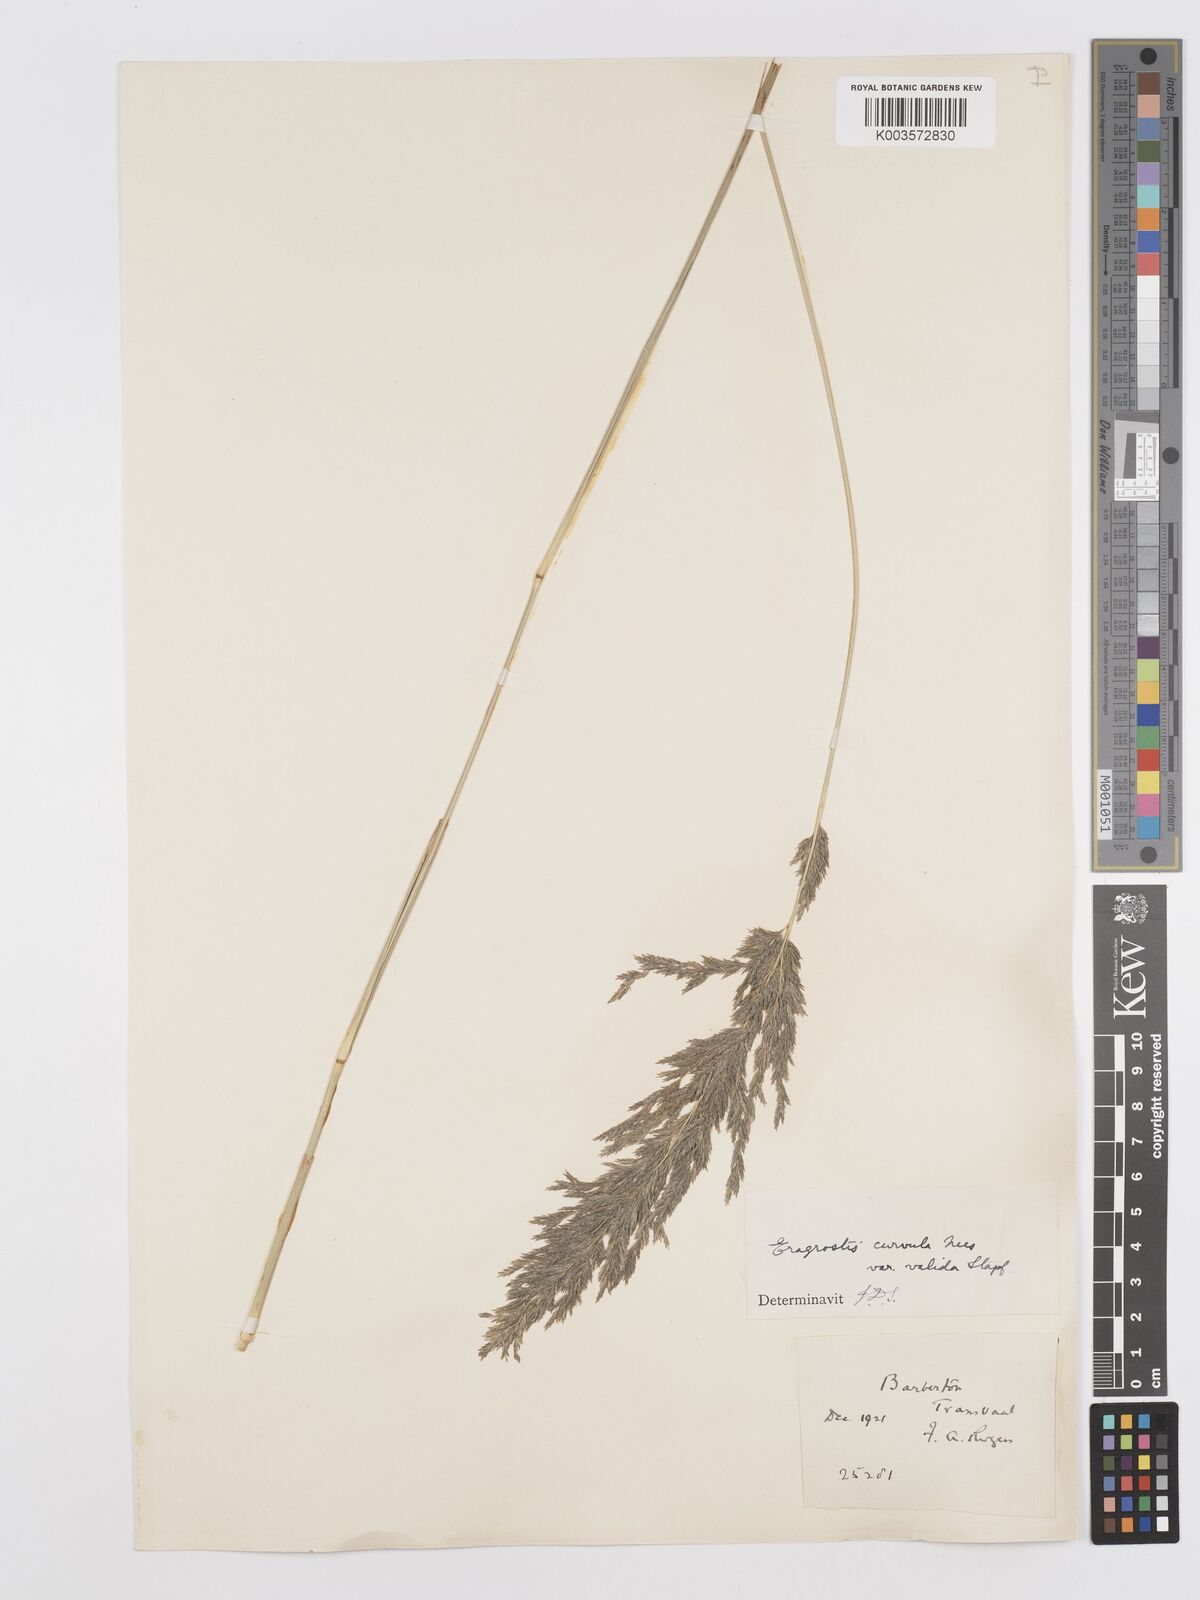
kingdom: Plantae
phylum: Tracheophyta
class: Liliopsida
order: Poales
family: Poaceae
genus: Eragrostis
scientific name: Eragrostis curvula
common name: African love-grass
